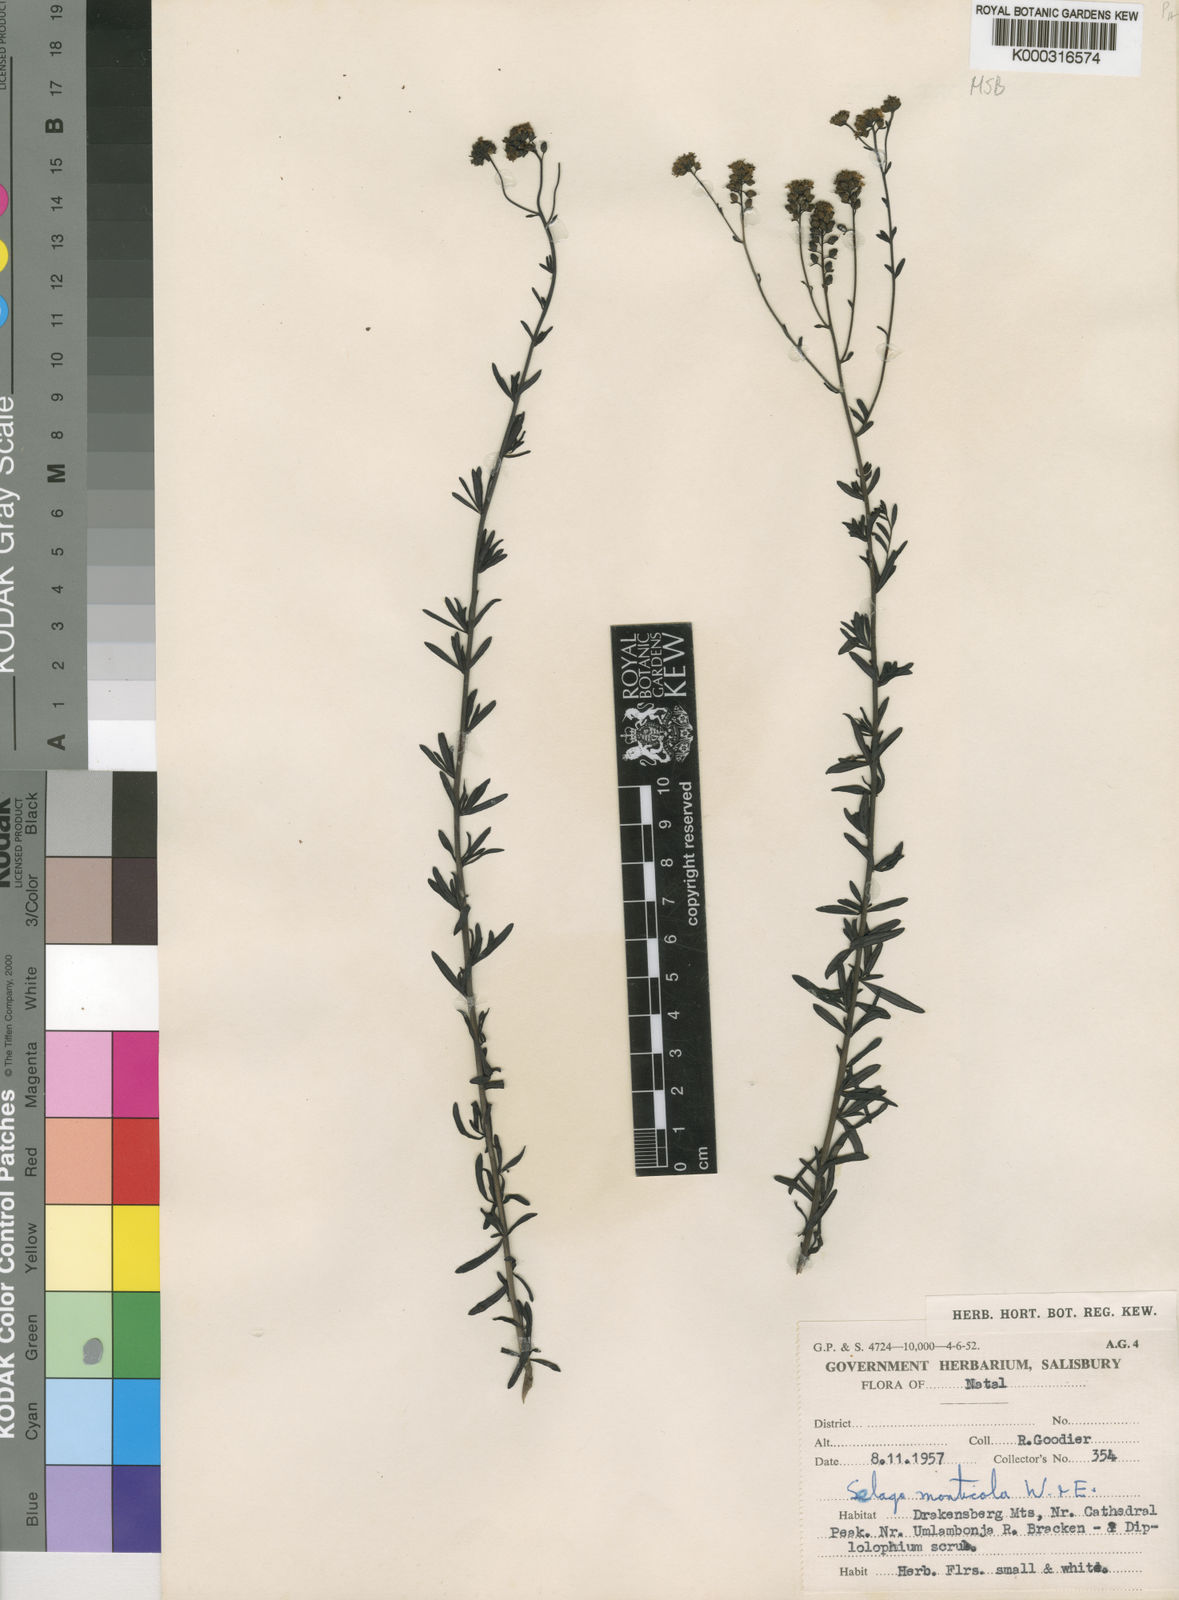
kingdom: Plantae
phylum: Tracheophyta
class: Magnoliopsida
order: Lamiales
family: Scrophulariaceae
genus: Selago
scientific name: Selago monticola
